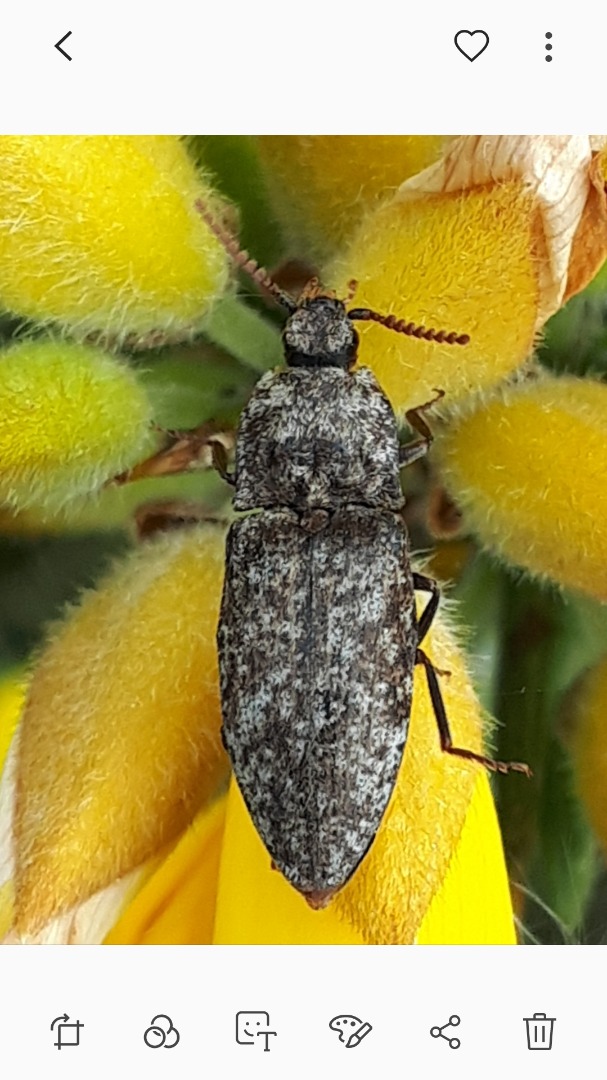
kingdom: Animalia
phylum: Arthropoda
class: Insecta
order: Coleoptera
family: Elateridae
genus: Agrypnus
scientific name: Agrypnus murinus
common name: Musegrå smælder
